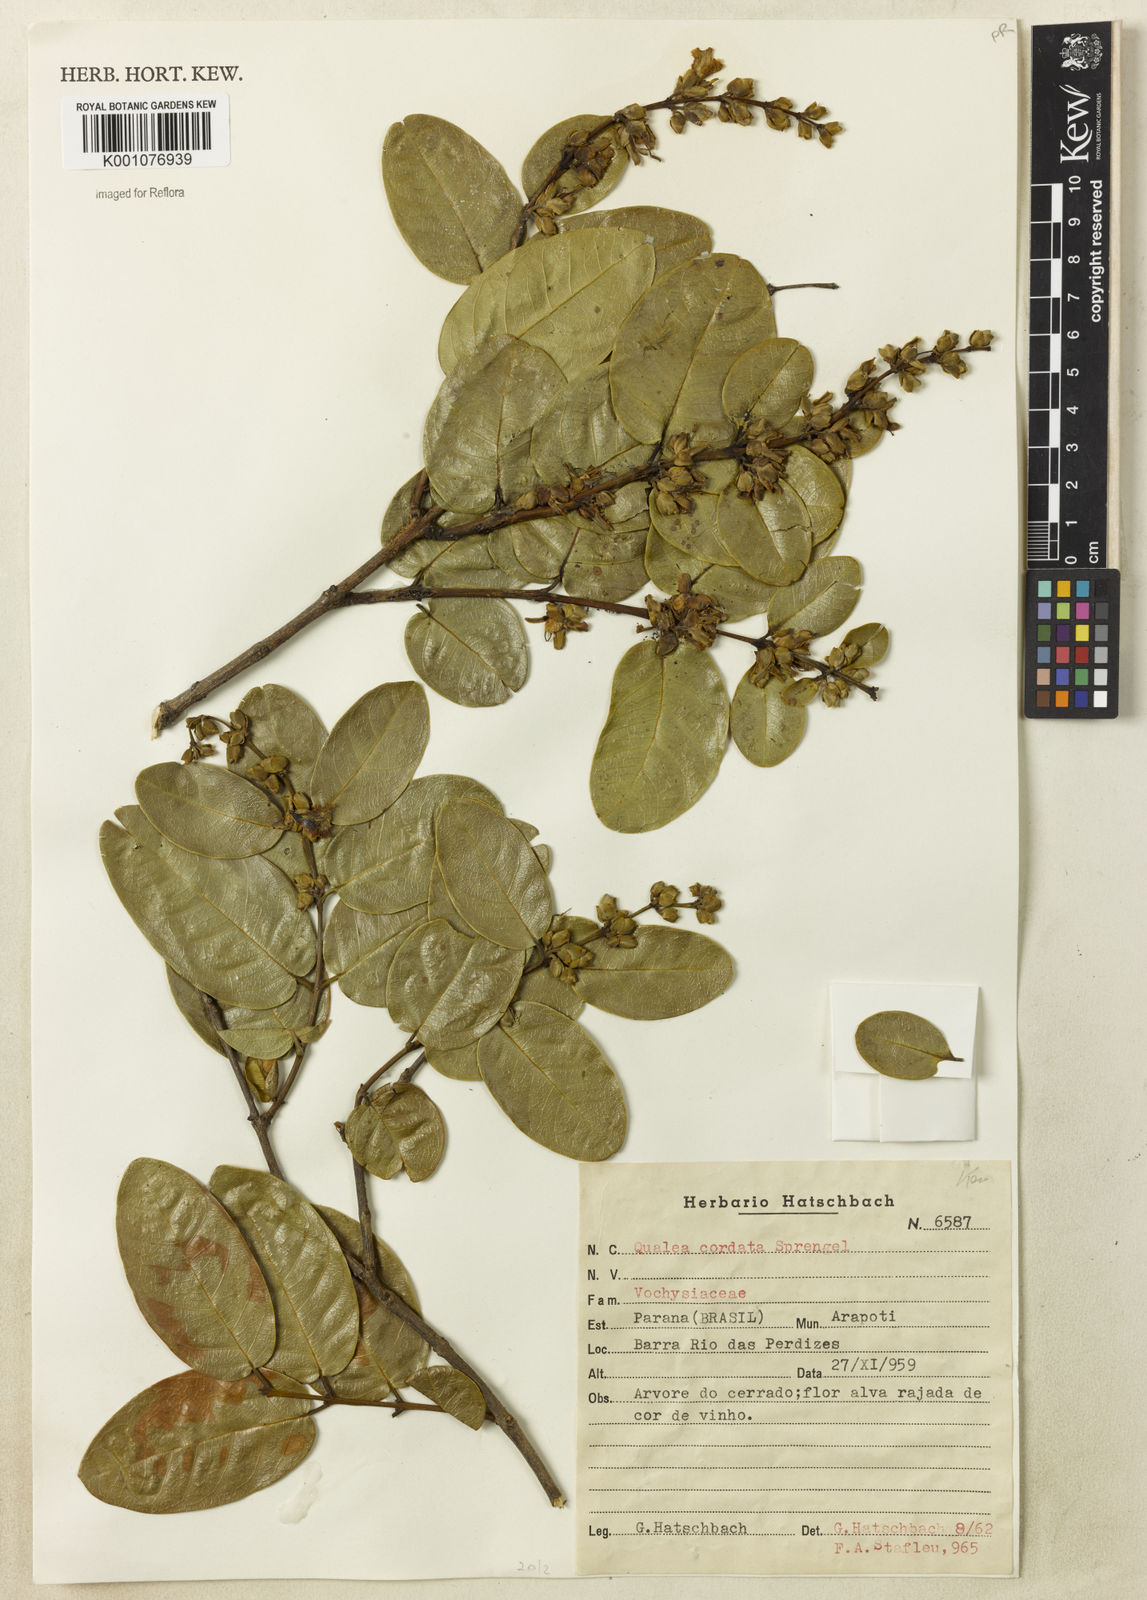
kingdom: Plantae
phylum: Tracheophyta
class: Magnoliopsida
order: Myrtales
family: Vochysiaceae
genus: Qualea
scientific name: Qualea cordata
